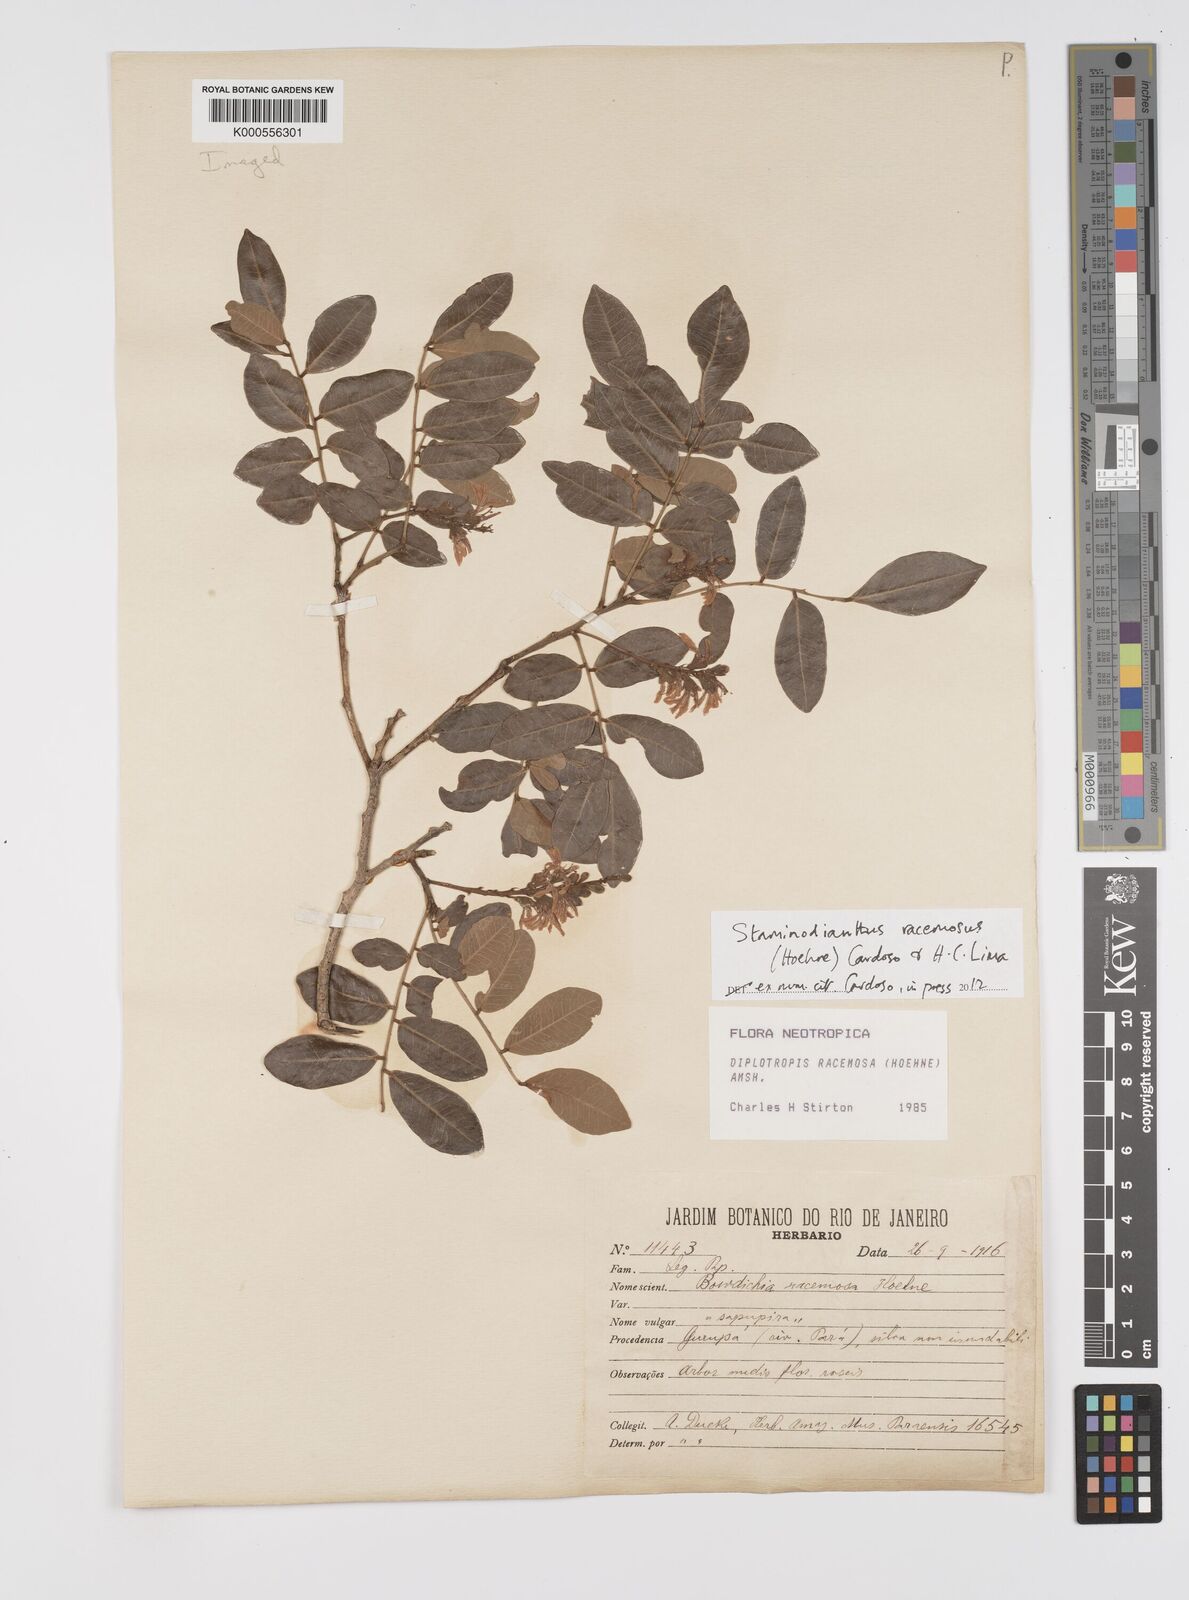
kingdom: Plantae
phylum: Tracheophyta
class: Magnoliopsida
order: Fabales
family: Fabaceae
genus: Staminodianthus
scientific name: Staminodianthus racemosus
